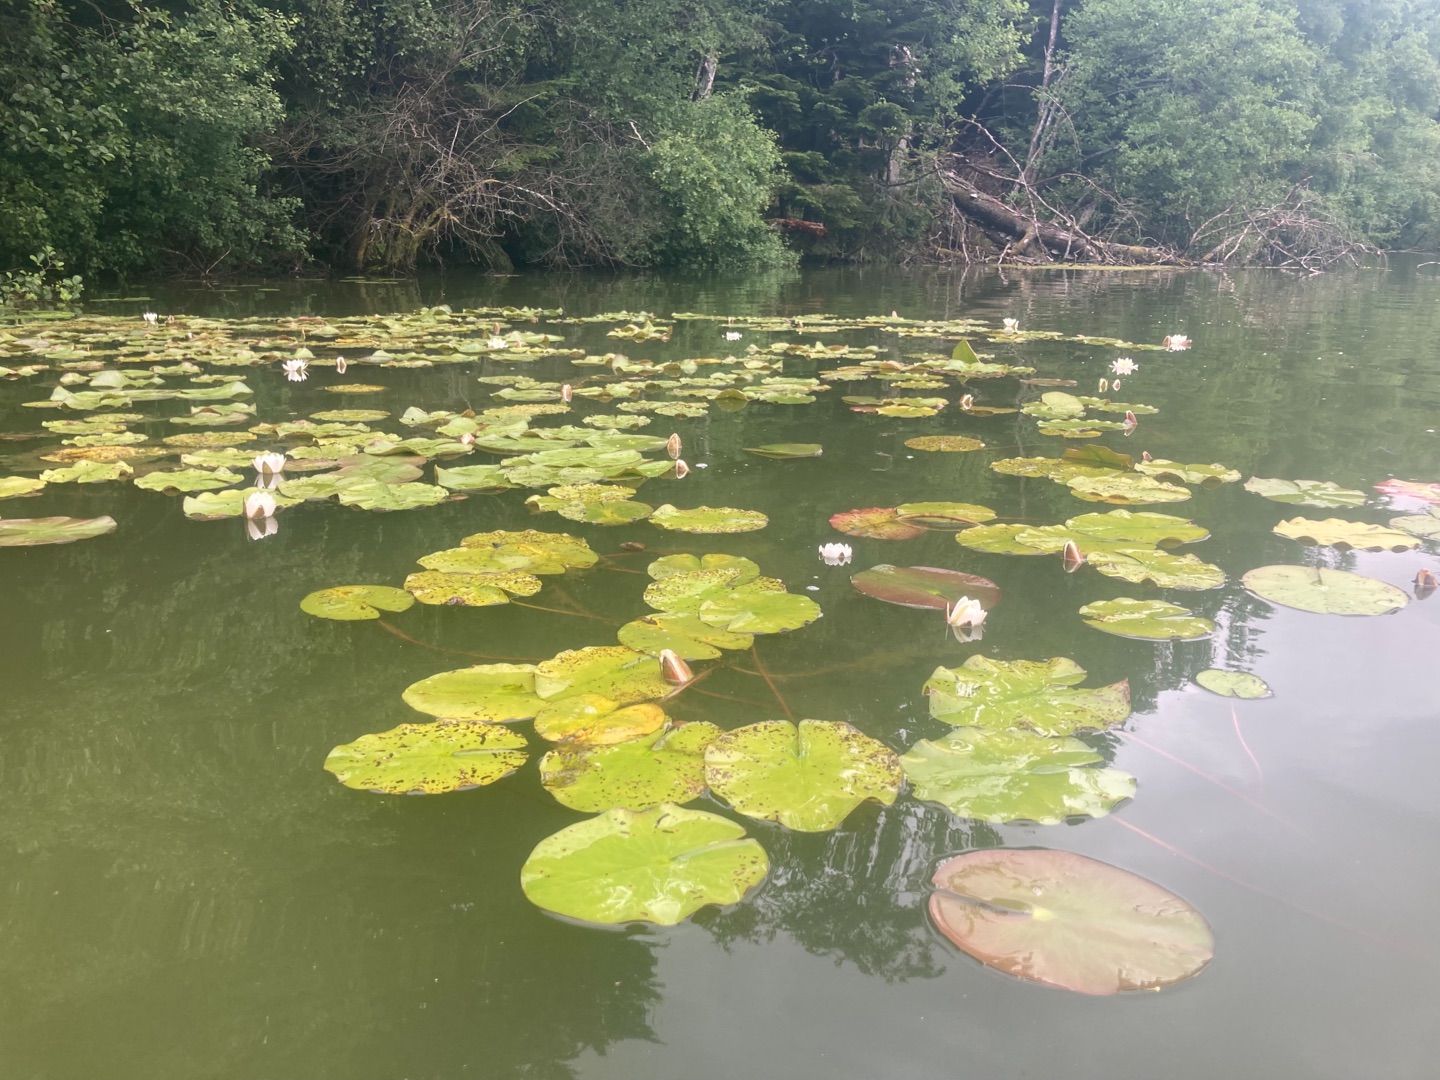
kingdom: Plantae
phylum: Tracheophyta
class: Magnoliopsida
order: Nymphaeales
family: Nymphaeaceae
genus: Nymphaea
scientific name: Nymphaea alba
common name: Hvid åkande
